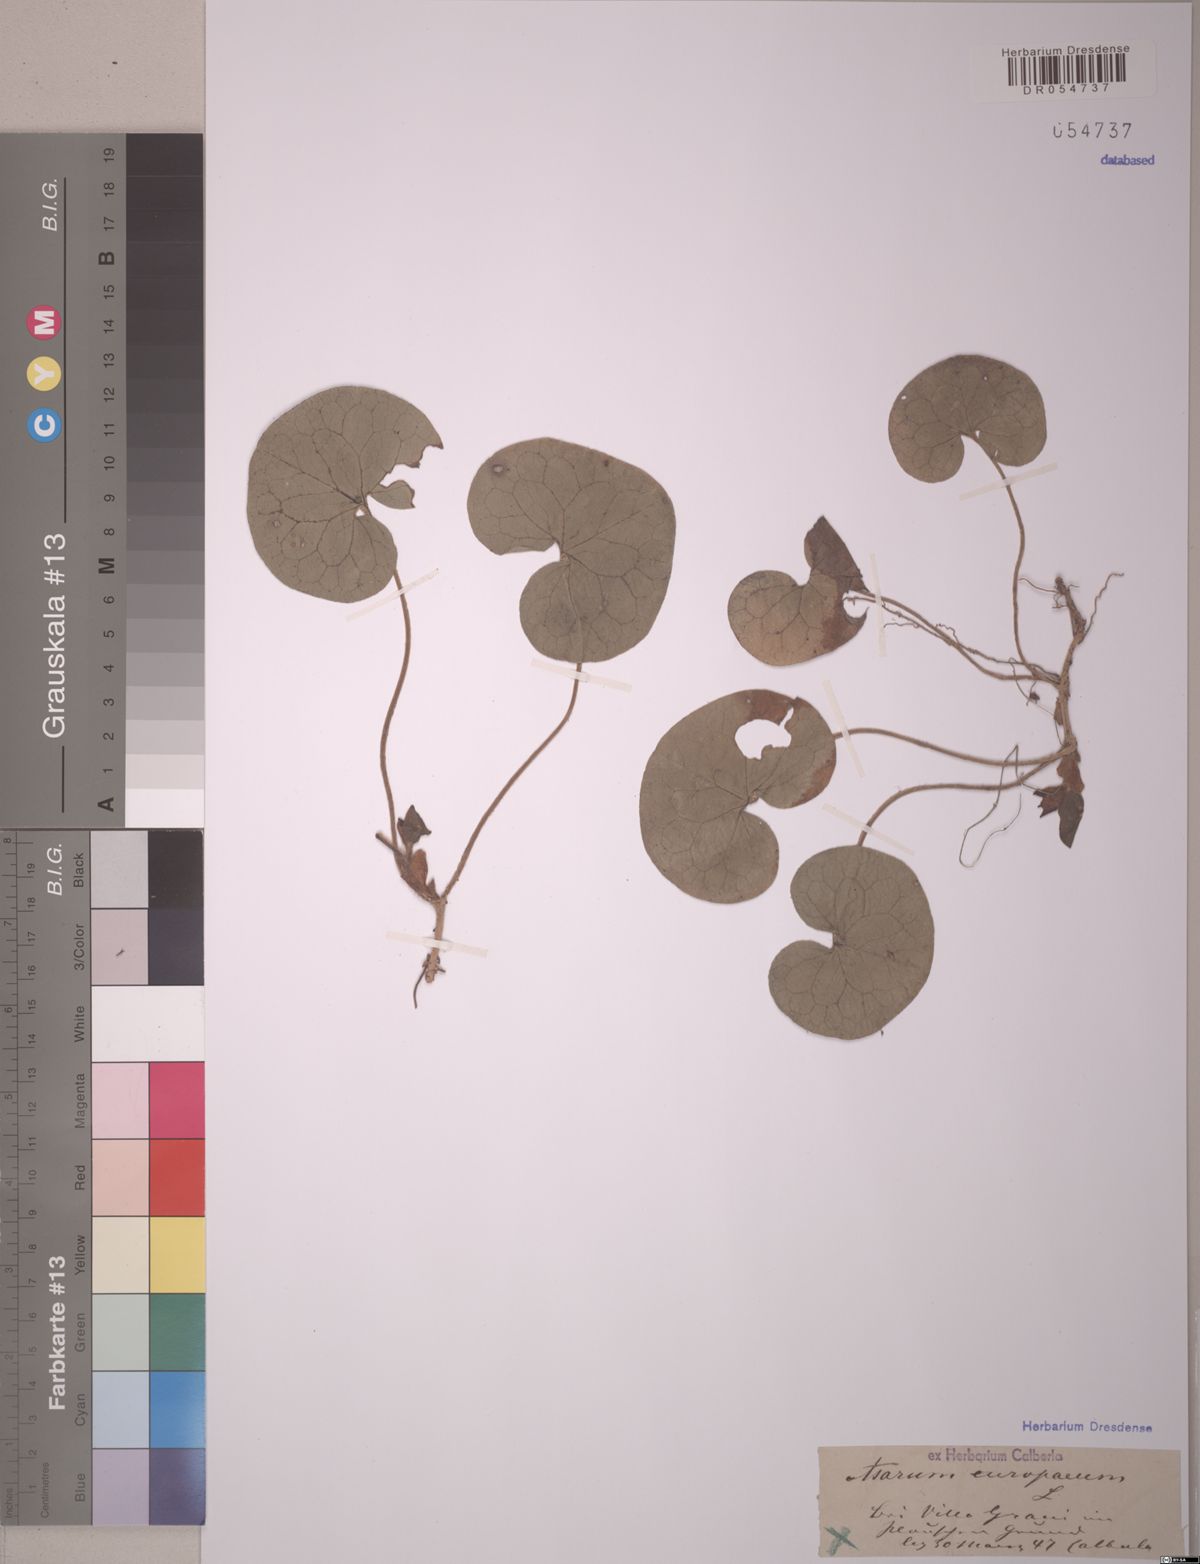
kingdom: Plantae
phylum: Tracheophyta
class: Magnoliopsida
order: Piperales
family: Aristolochiaceae
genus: Asarum
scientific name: Asarum europaeum
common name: Asarabacca
